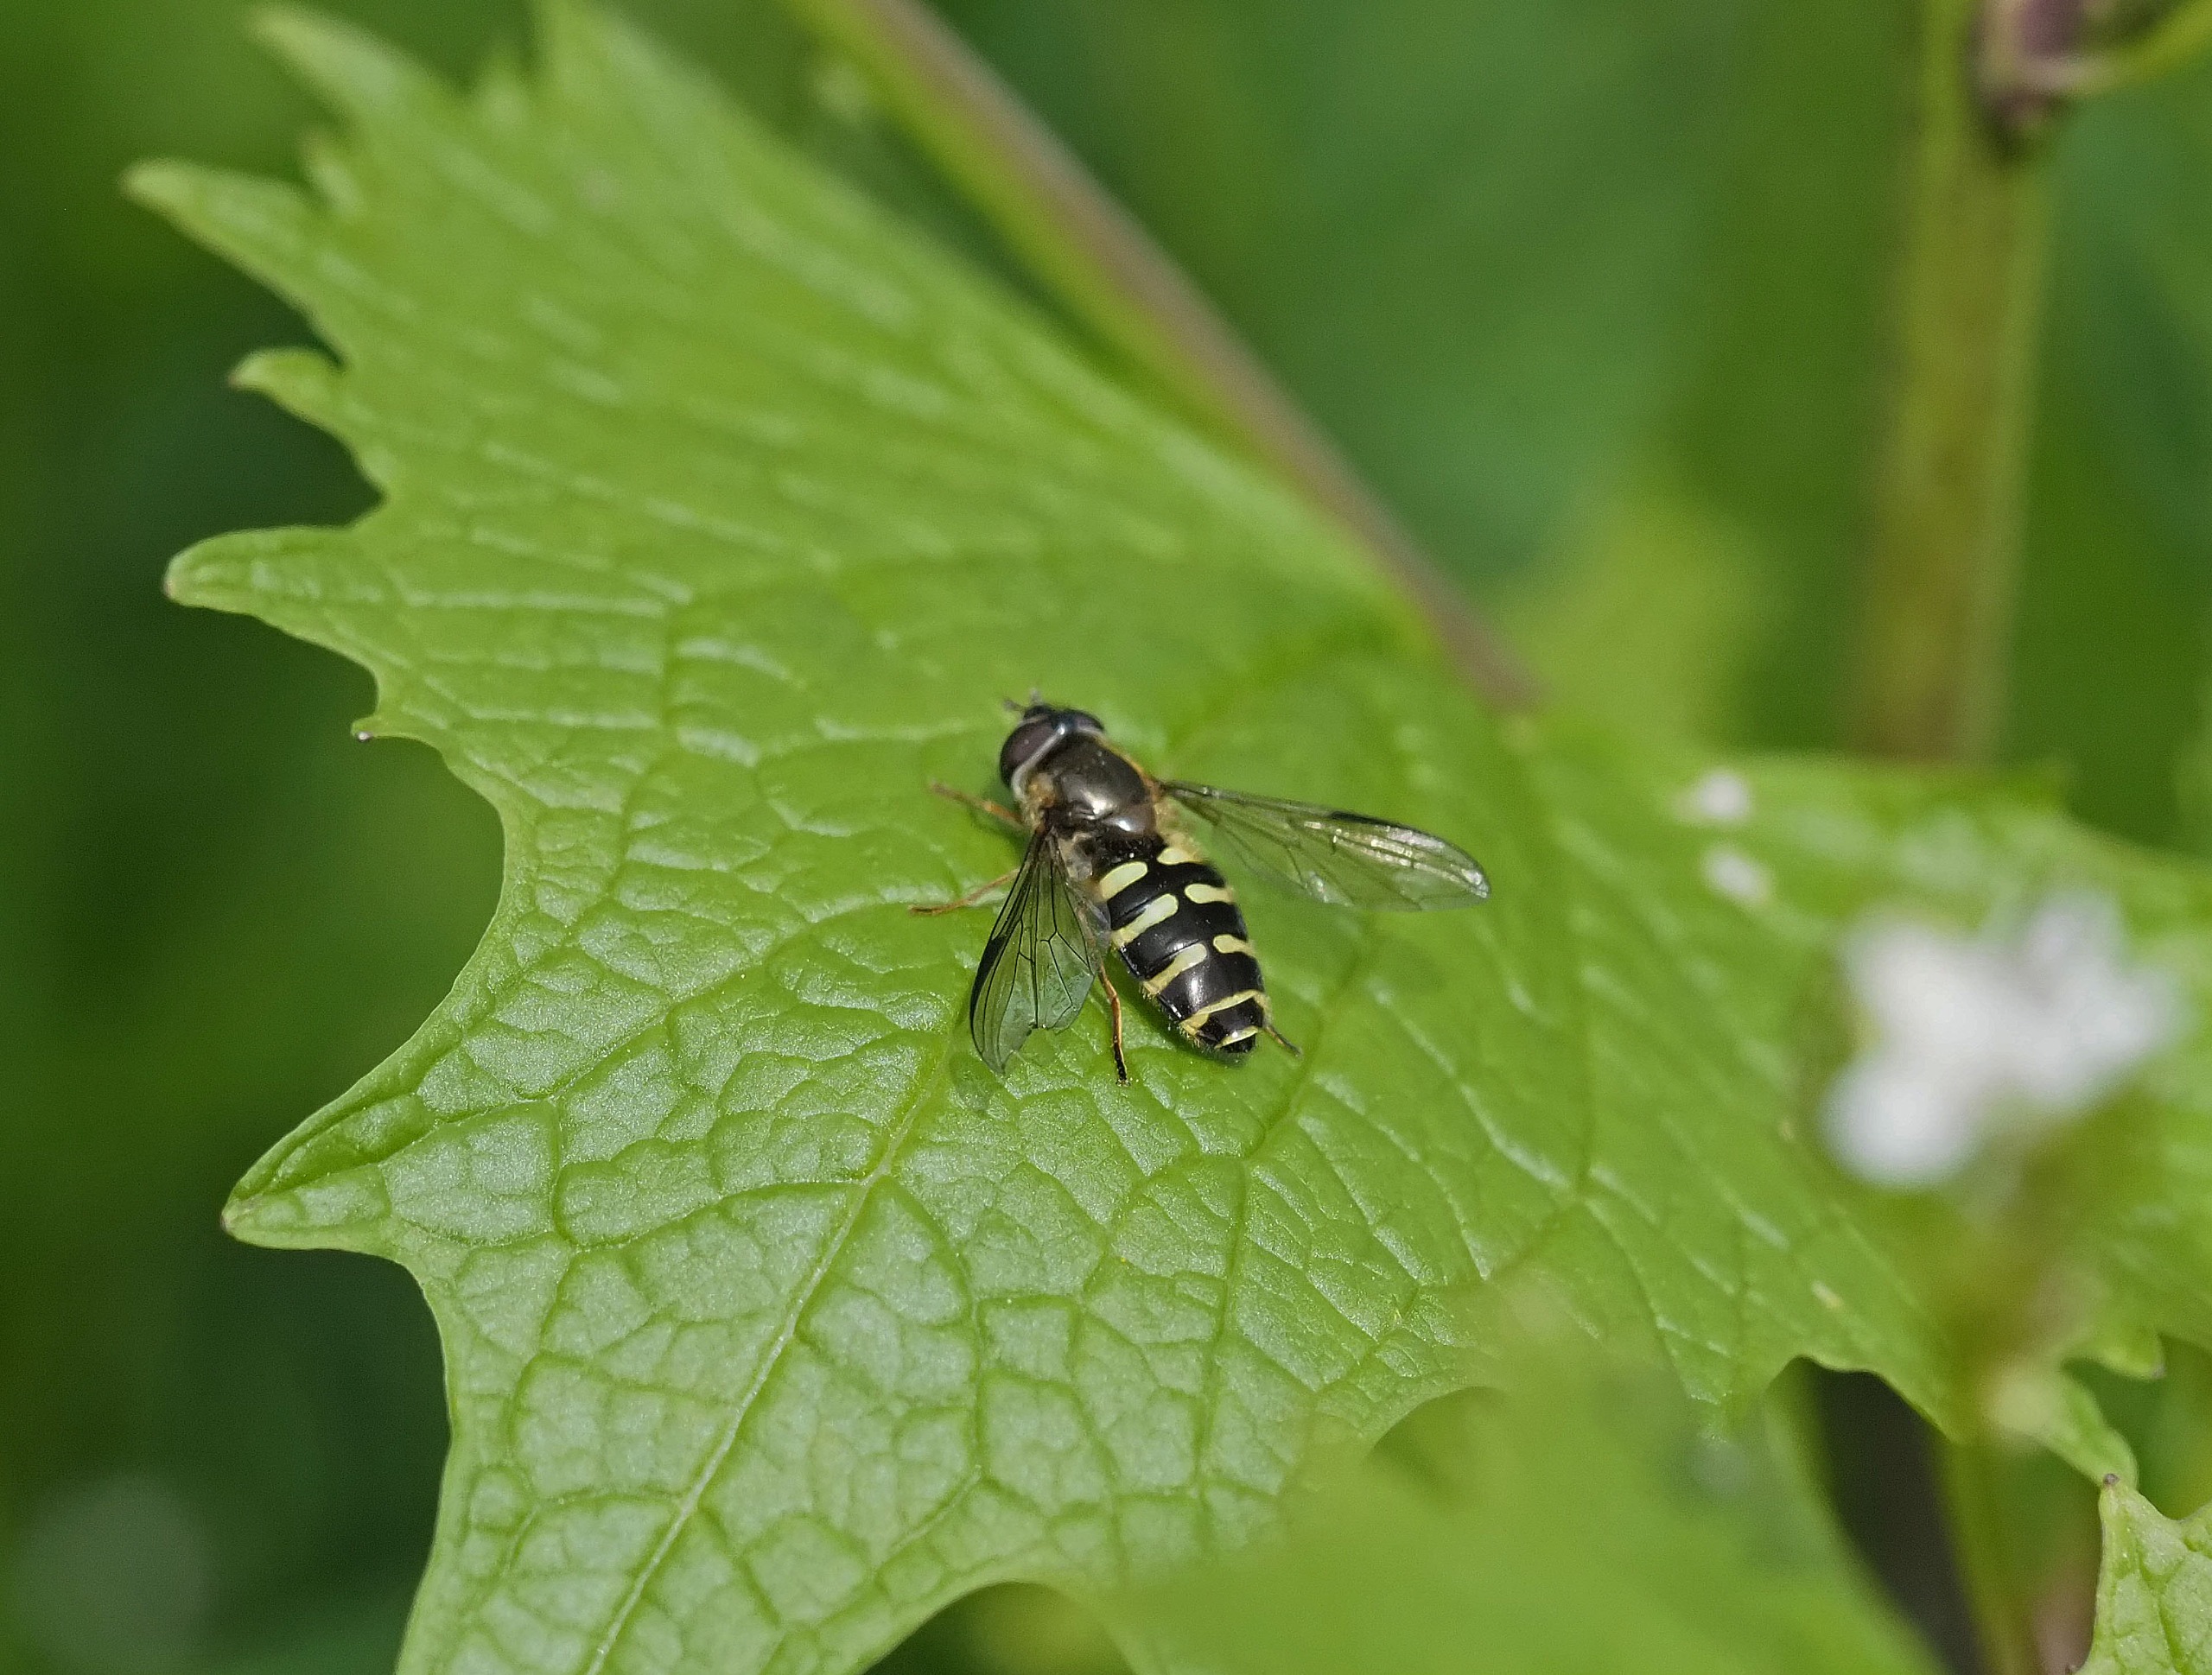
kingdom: Animalia
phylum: Arthropoda
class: Insecta
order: Diptera
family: Syrphidae
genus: Dasysyrphus
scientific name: Dasysyrphus venustus
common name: Smuk skovsvirreflue
